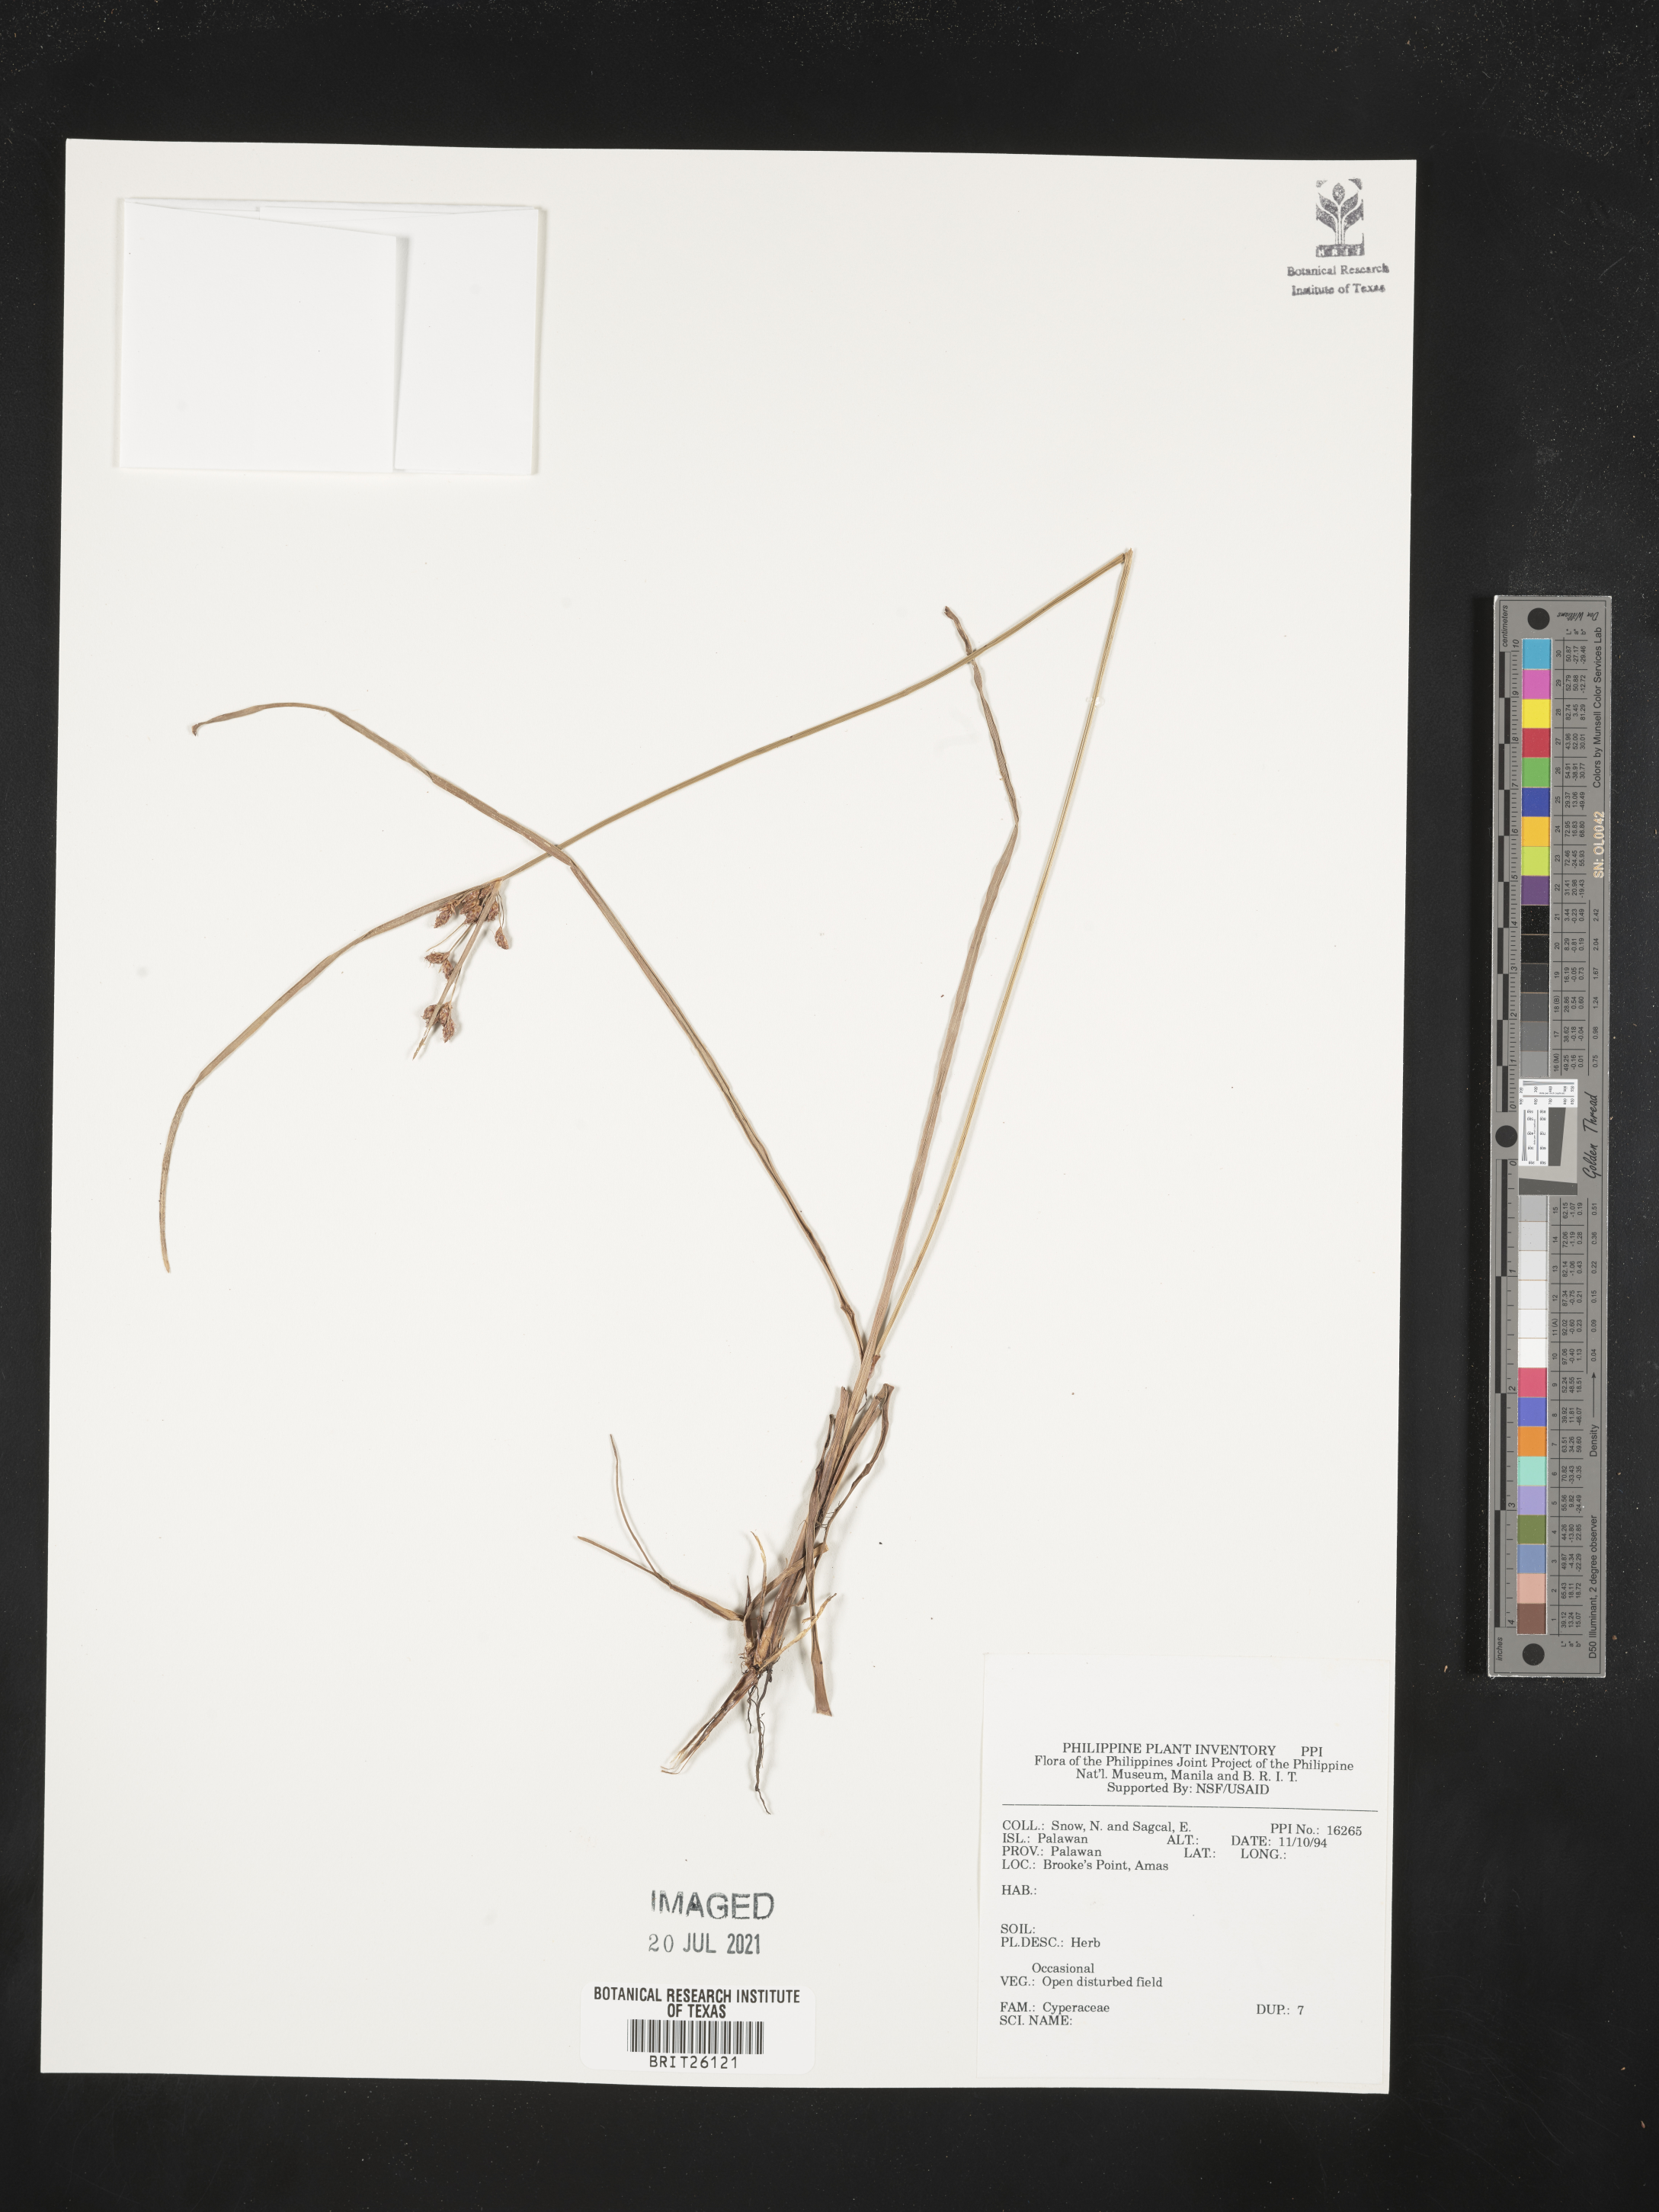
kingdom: Plantae
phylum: Tracheophyta
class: Liliopsida
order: Poales
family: Cyperaceae
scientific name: Cyperaceae
